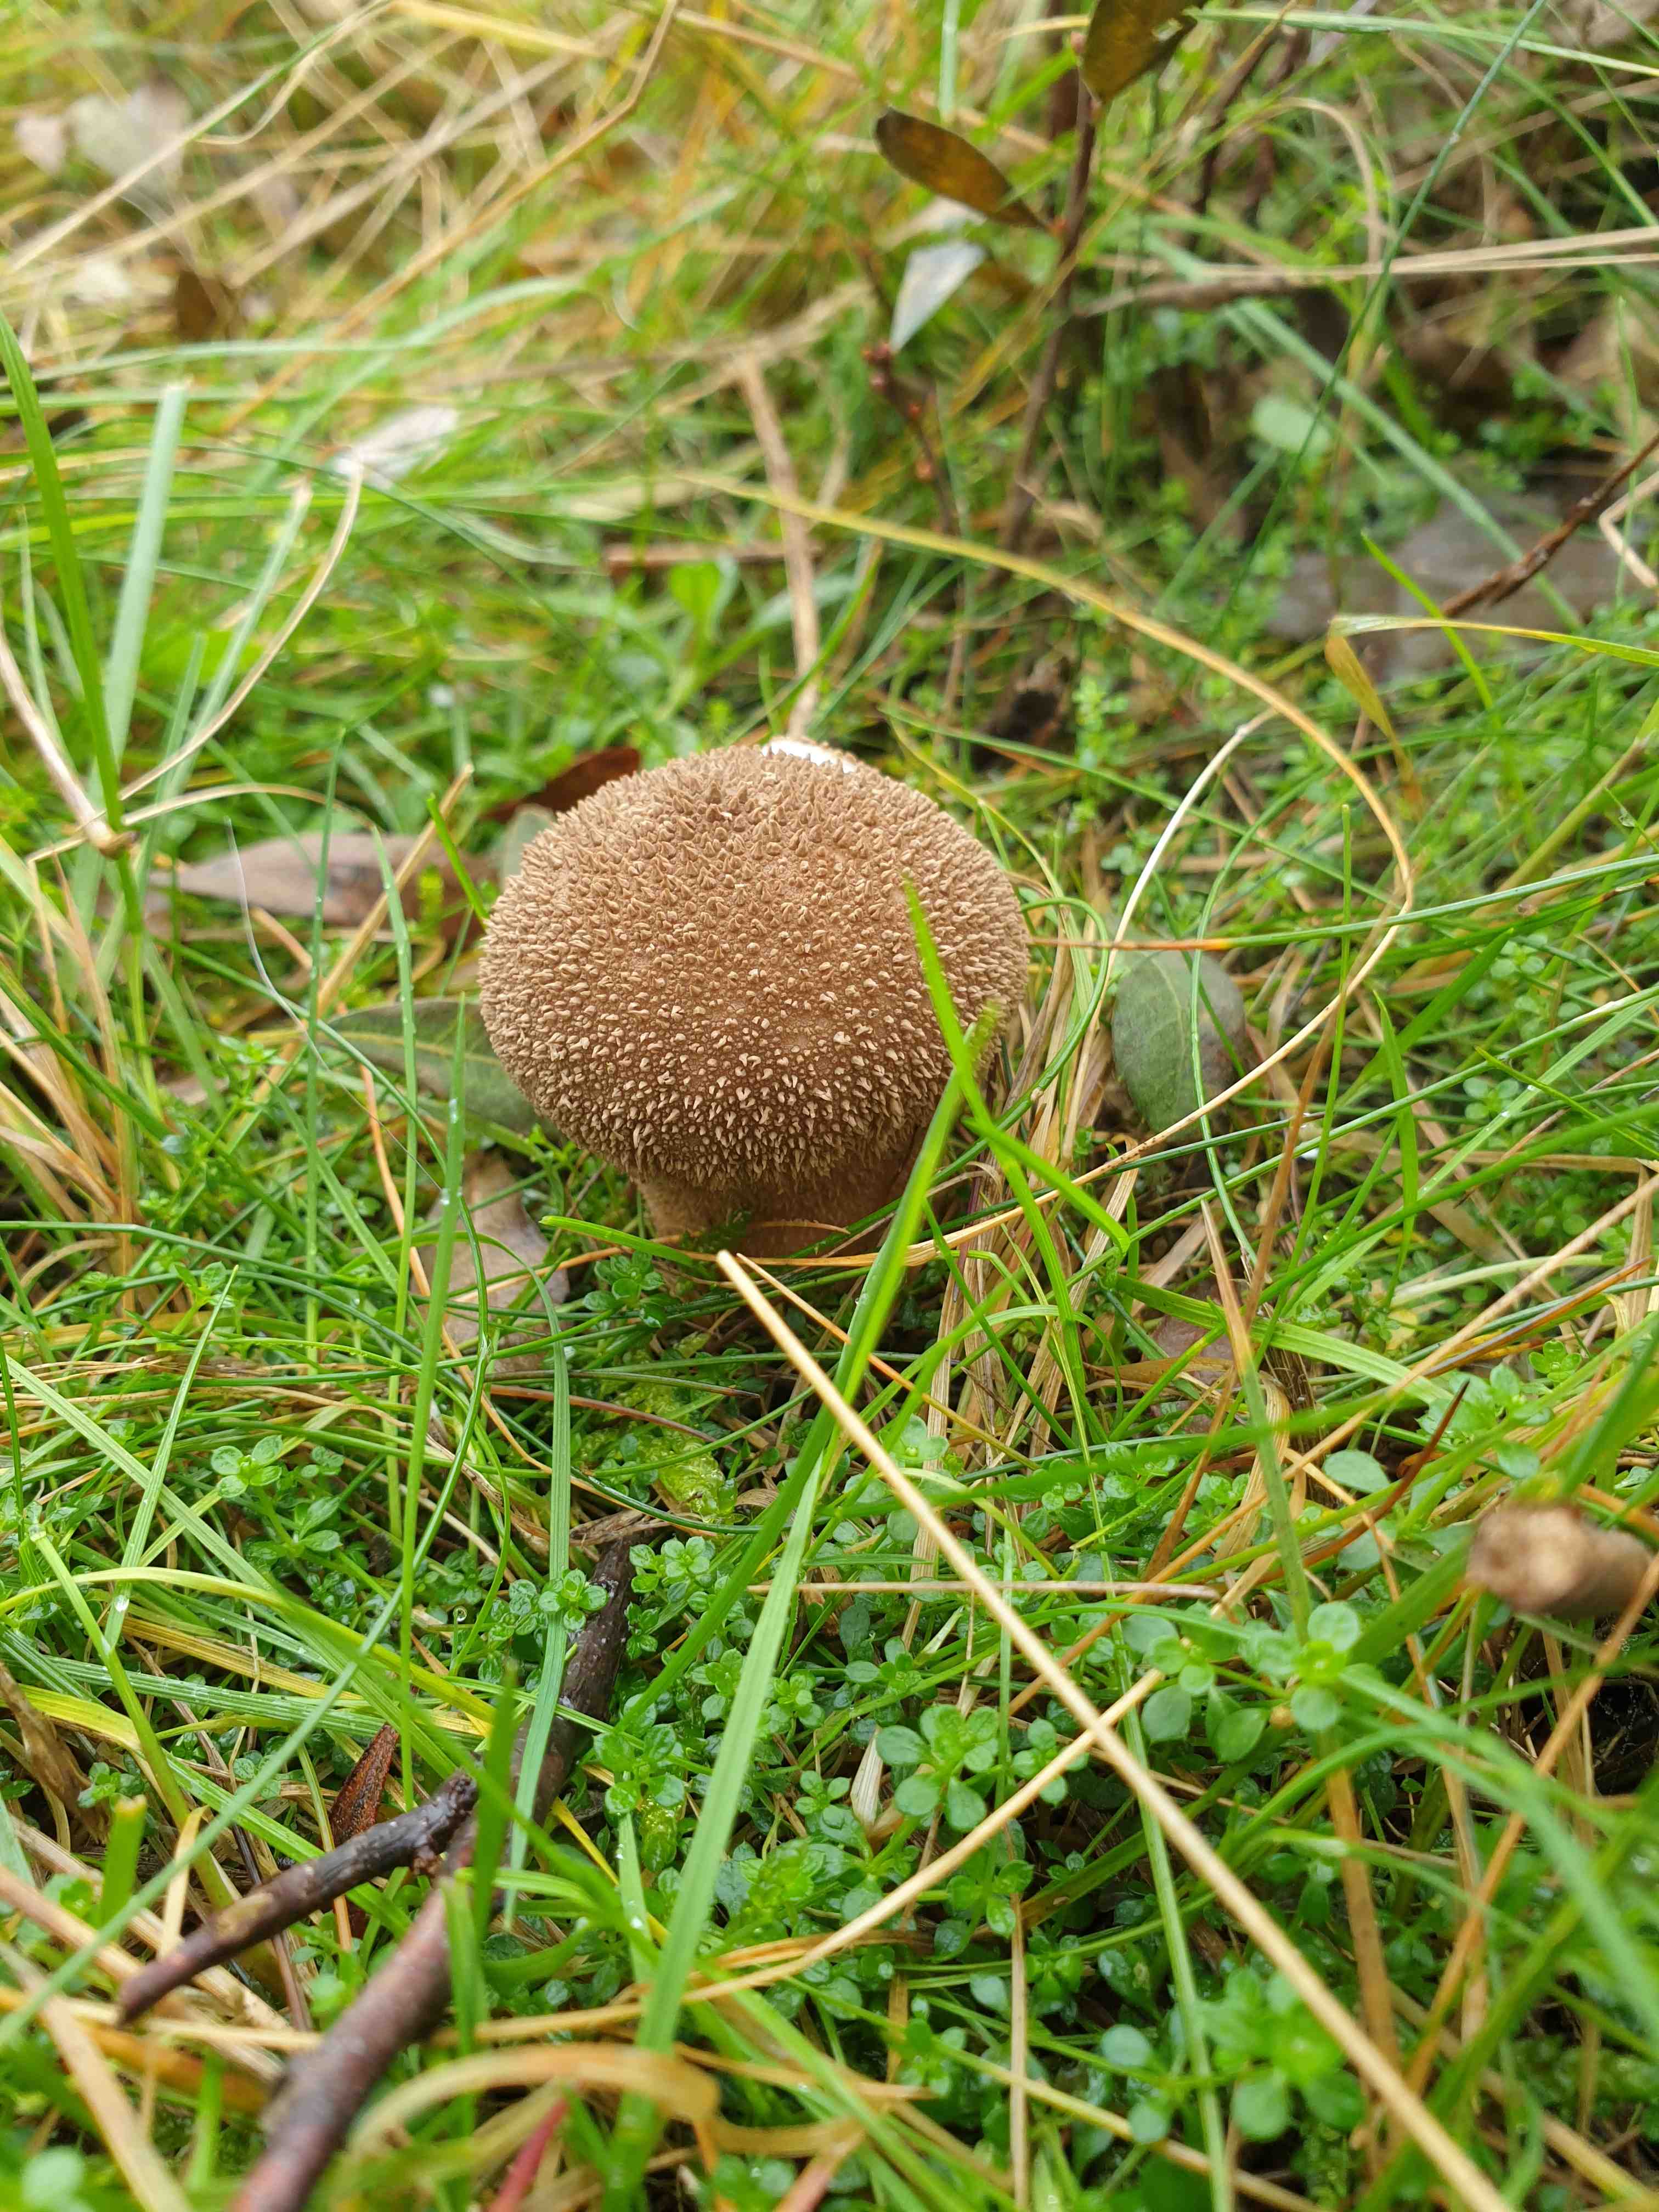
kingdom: Fungi
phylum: Basidiomycota
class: Agaricomycetes
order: Agaricales
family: Lycoperdaceae
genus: Lycoperdon
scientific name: Lycoperdon nigrescens
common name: sortagtig støvbold
